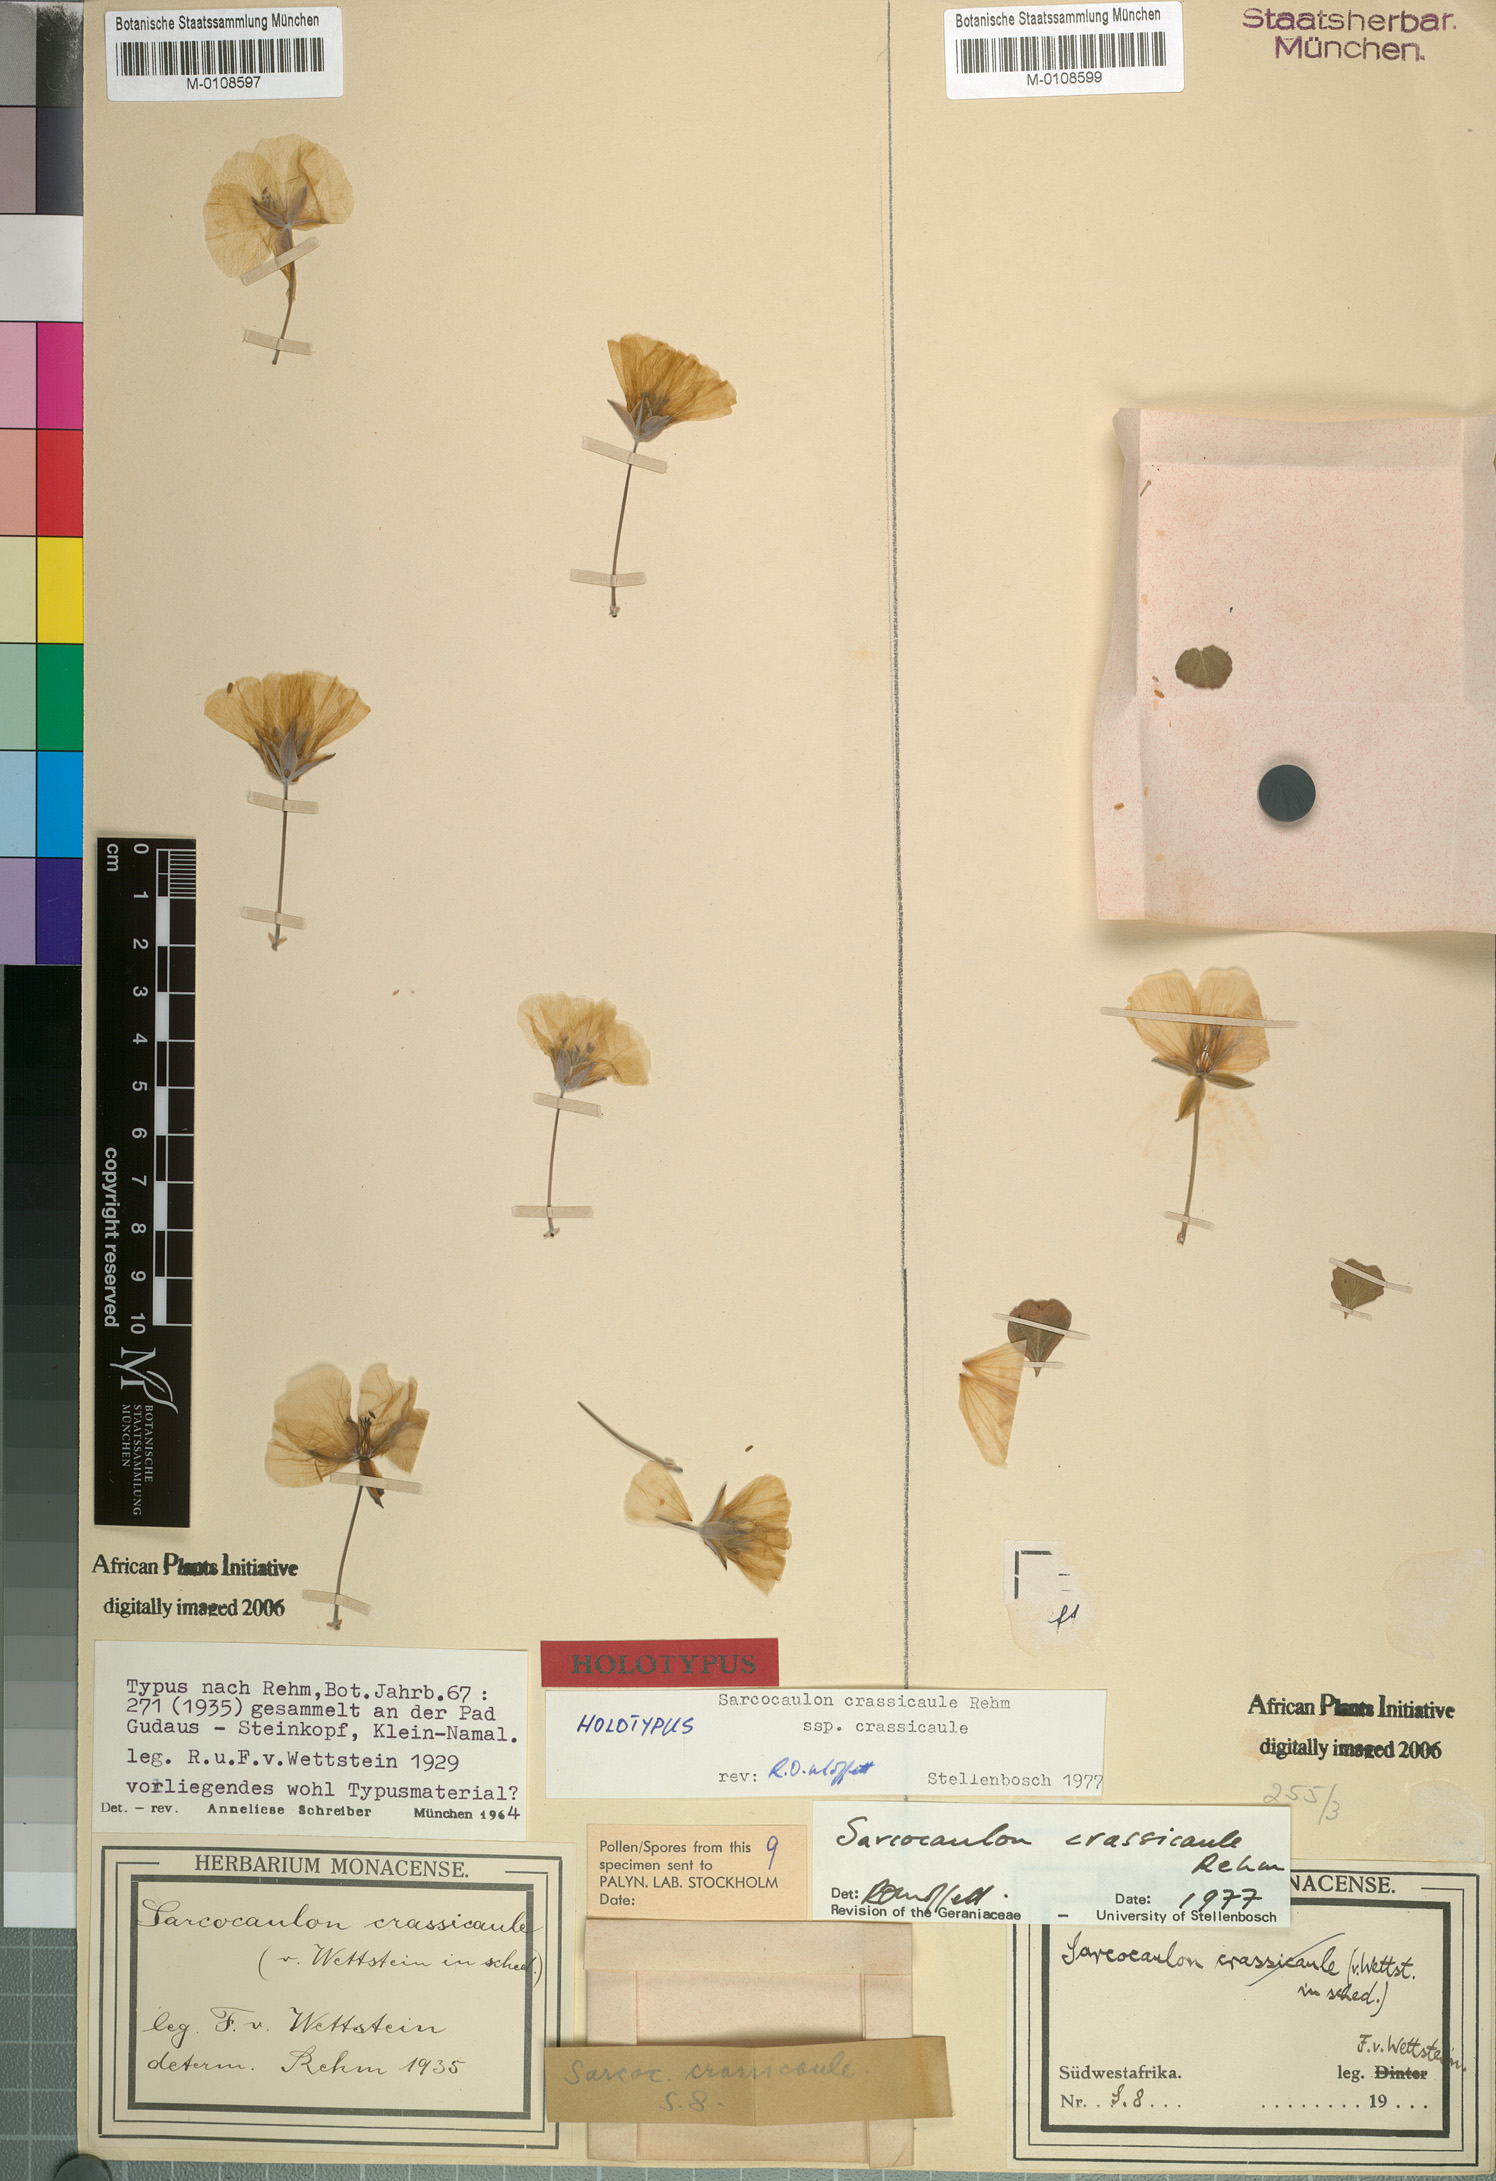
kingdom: Plantae
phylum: Tracheophyta
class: Magnoliopsida
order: Geraniales
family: Geraniaceae
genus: Monsonia
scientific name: Monsonia crassicaulis
